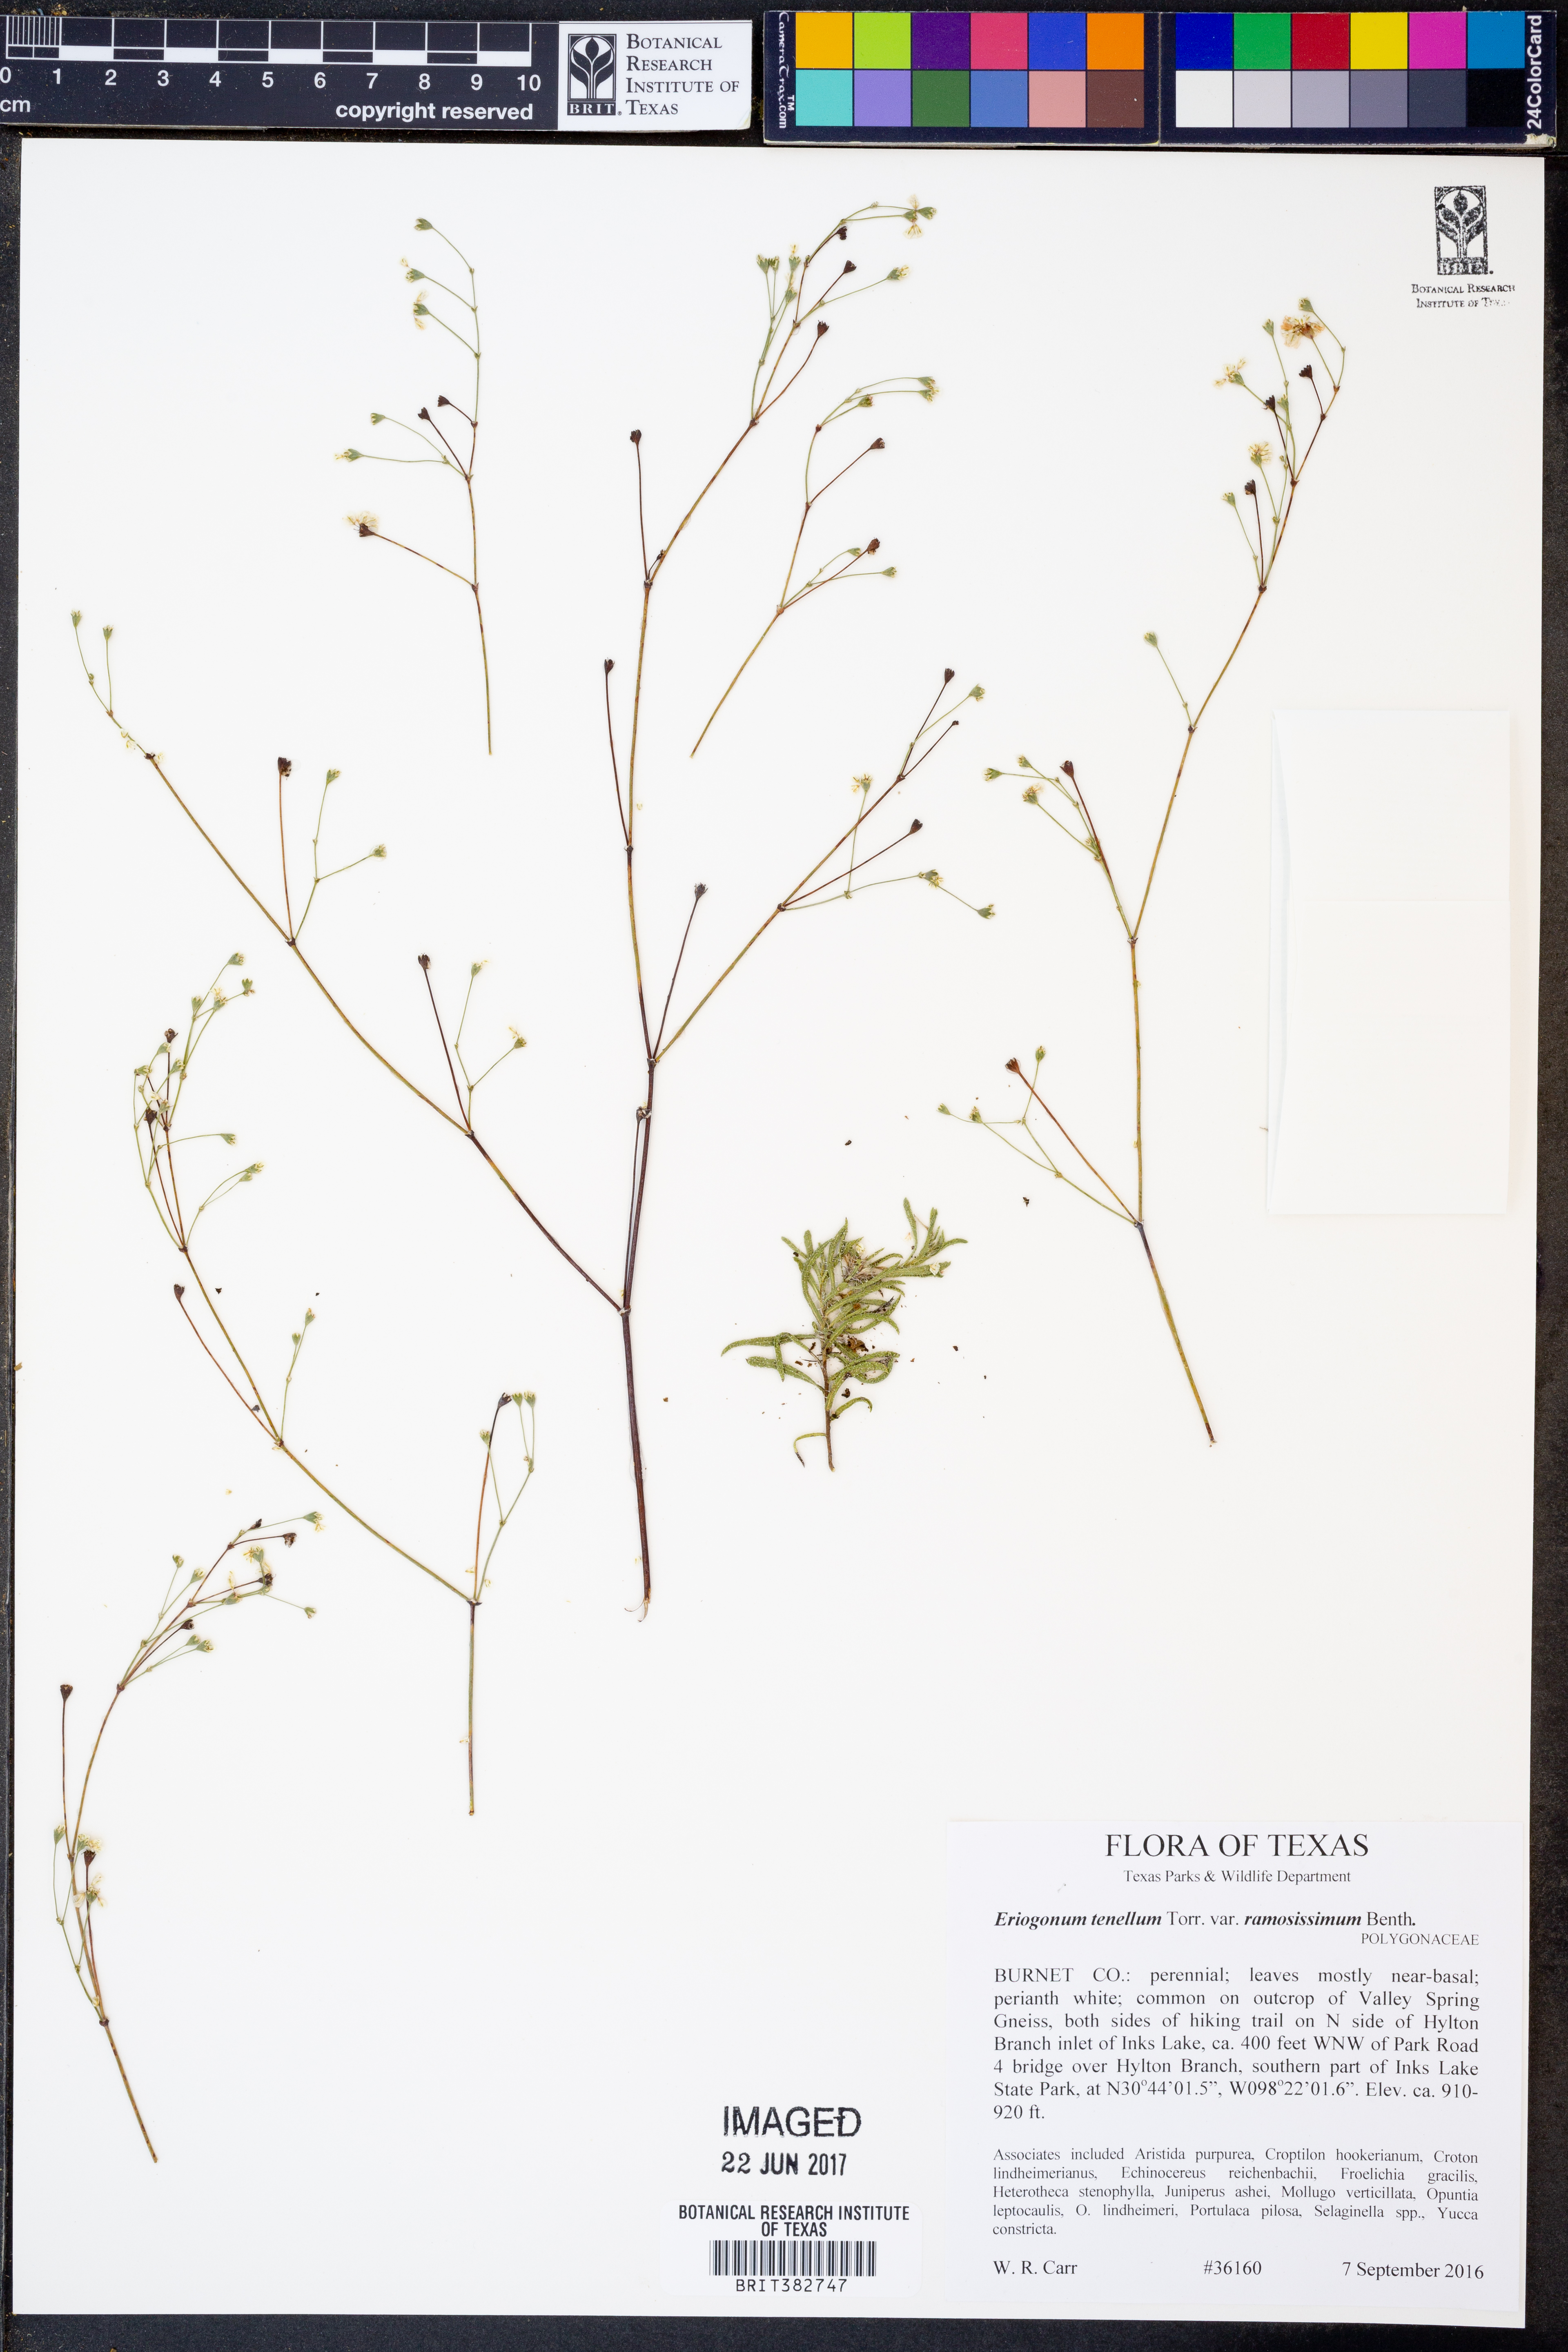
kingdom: Plantae
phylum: Tracheophyta
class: Magnoliopsida
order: Caryophyllales
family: Polygonaceae
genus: Eriogonum
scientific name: Eriogonum graniticum
